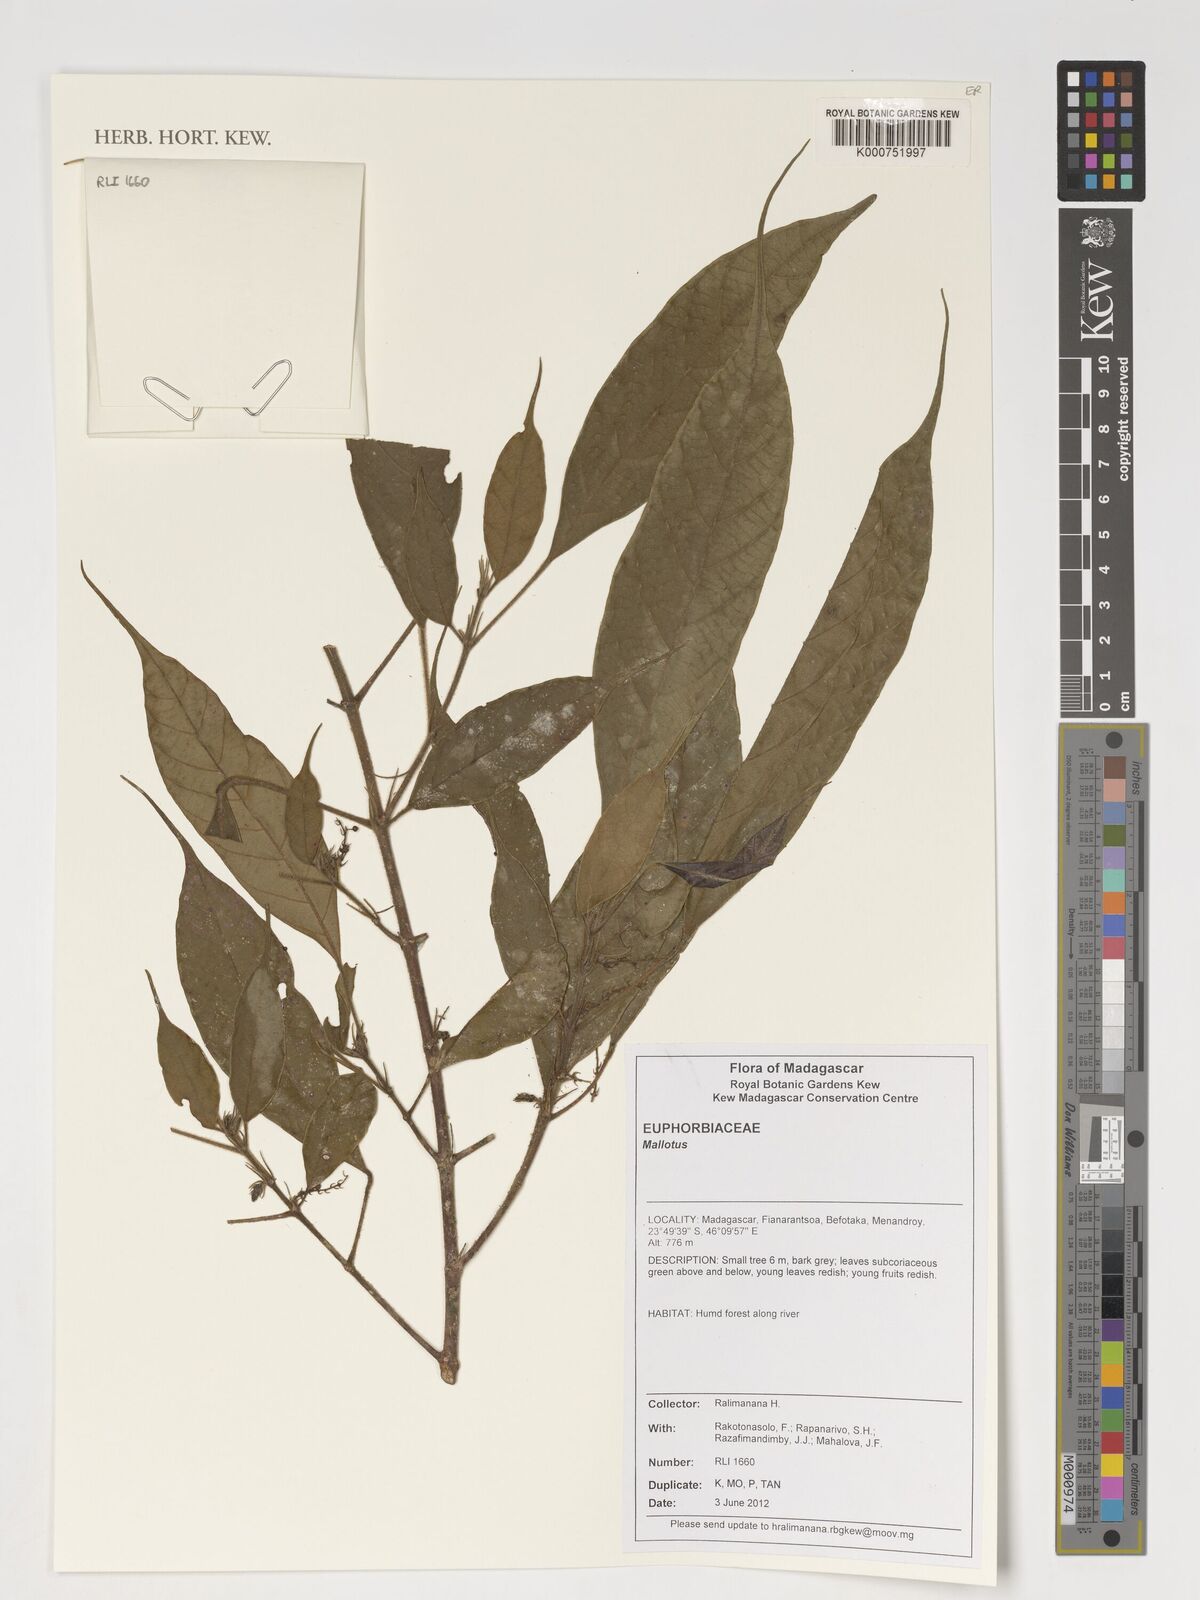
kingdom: Plantae
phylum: Tracheophyta
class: Magnoliopsida
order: Malpighiales
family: Euphorbiaceae
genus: Mallotus
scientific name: Mallotus
